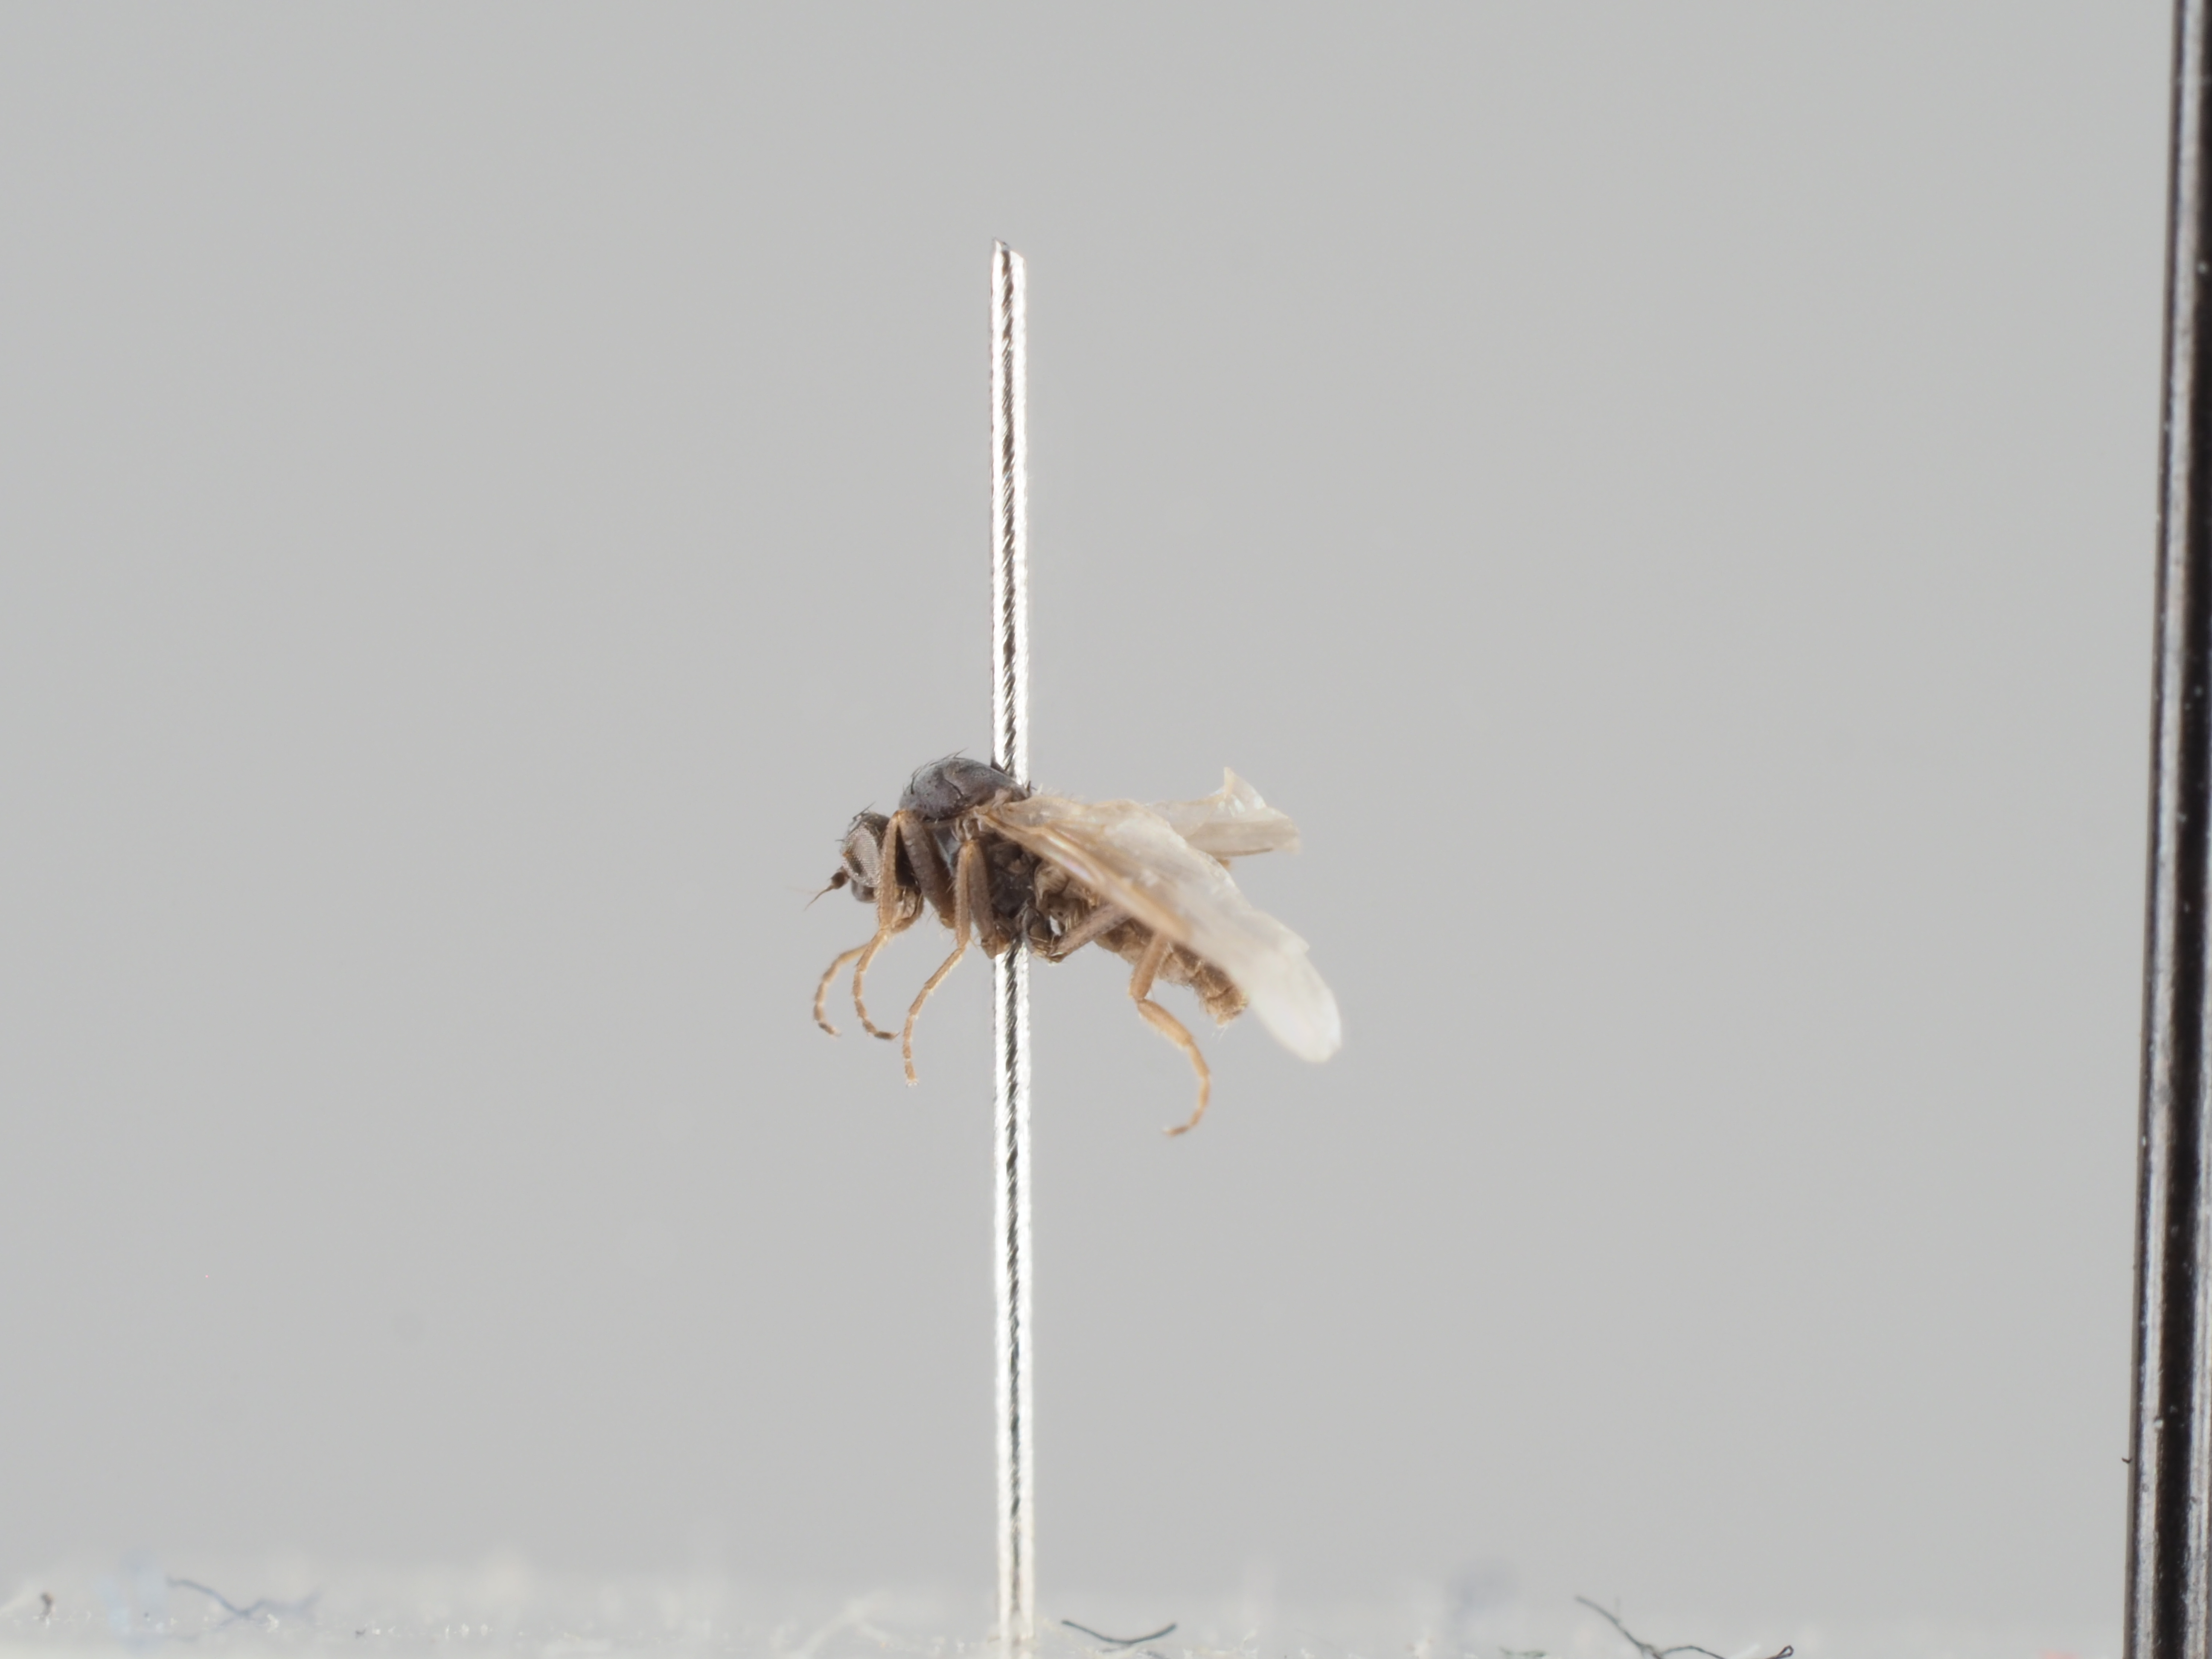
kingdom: Animalia
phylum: Arthropoda
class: Insecta
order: Diptera
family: Platypezidae
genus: Microsania
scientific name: Microsania pectipennis
